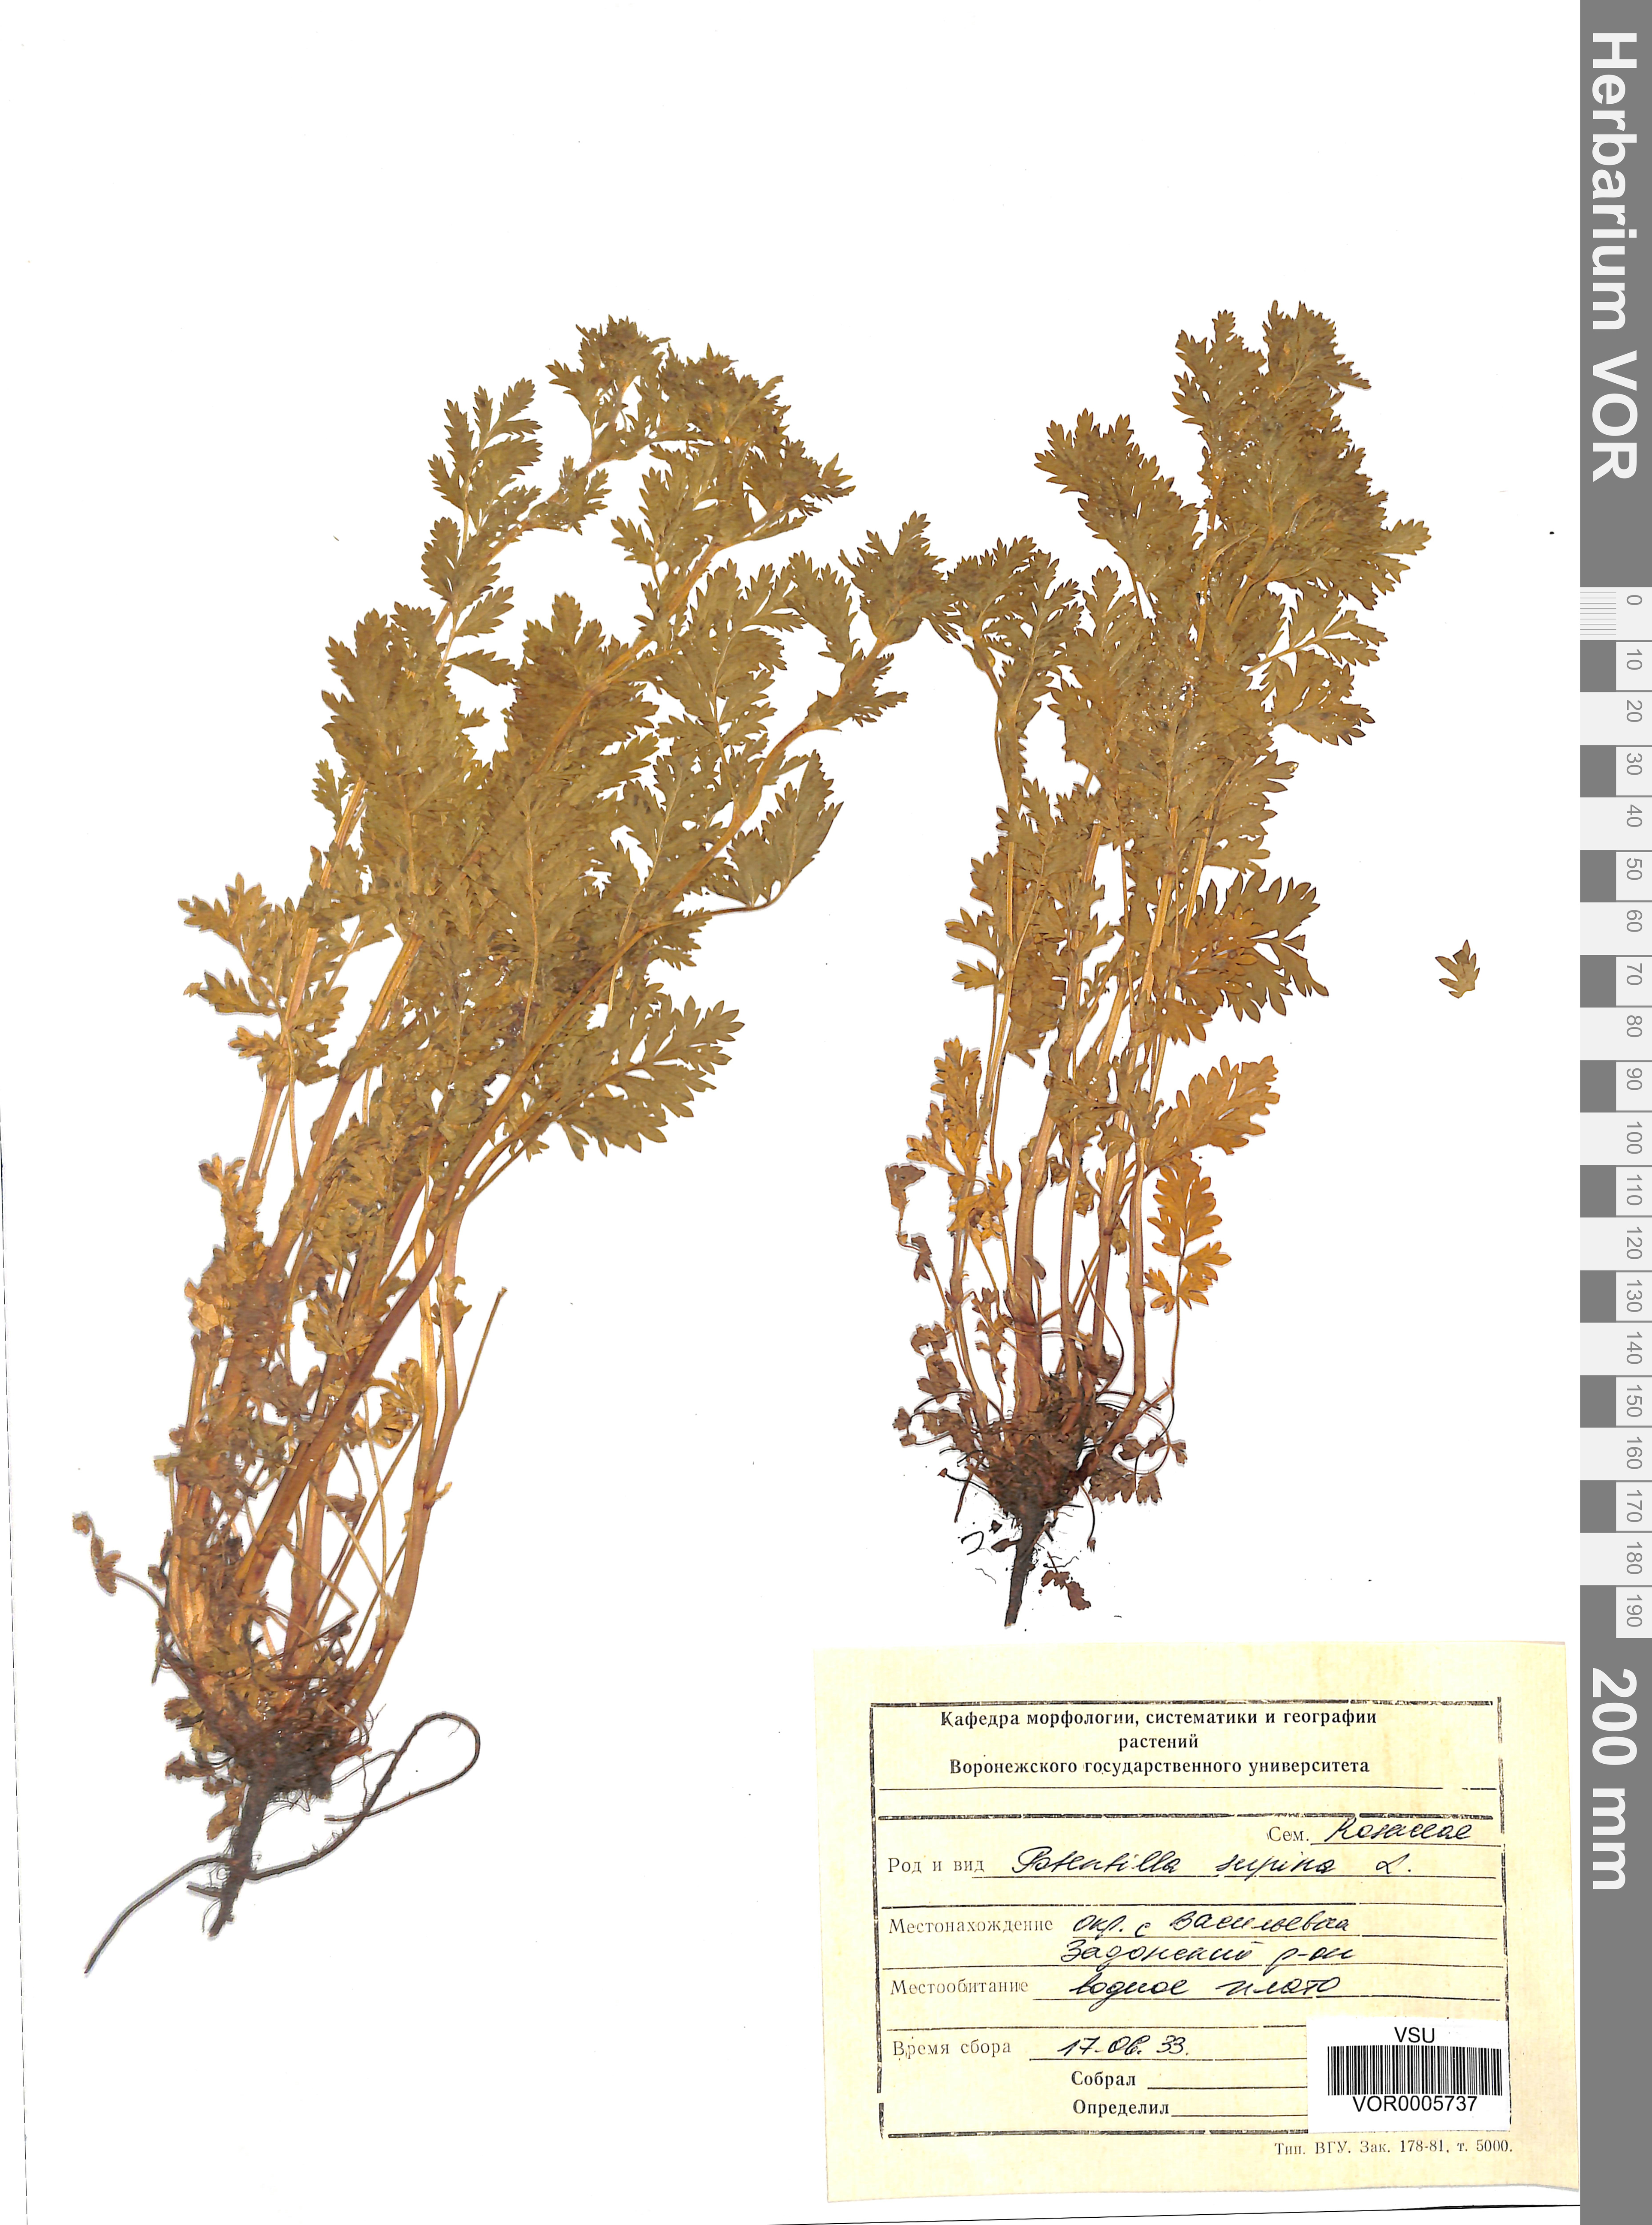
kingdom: Plantae
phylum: Tracheophyta
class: Magnoliopsida
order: Rosales
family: Rosaceae
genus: Potentilla
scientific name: Potentilla supina
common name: Prostrate cinquefoil
